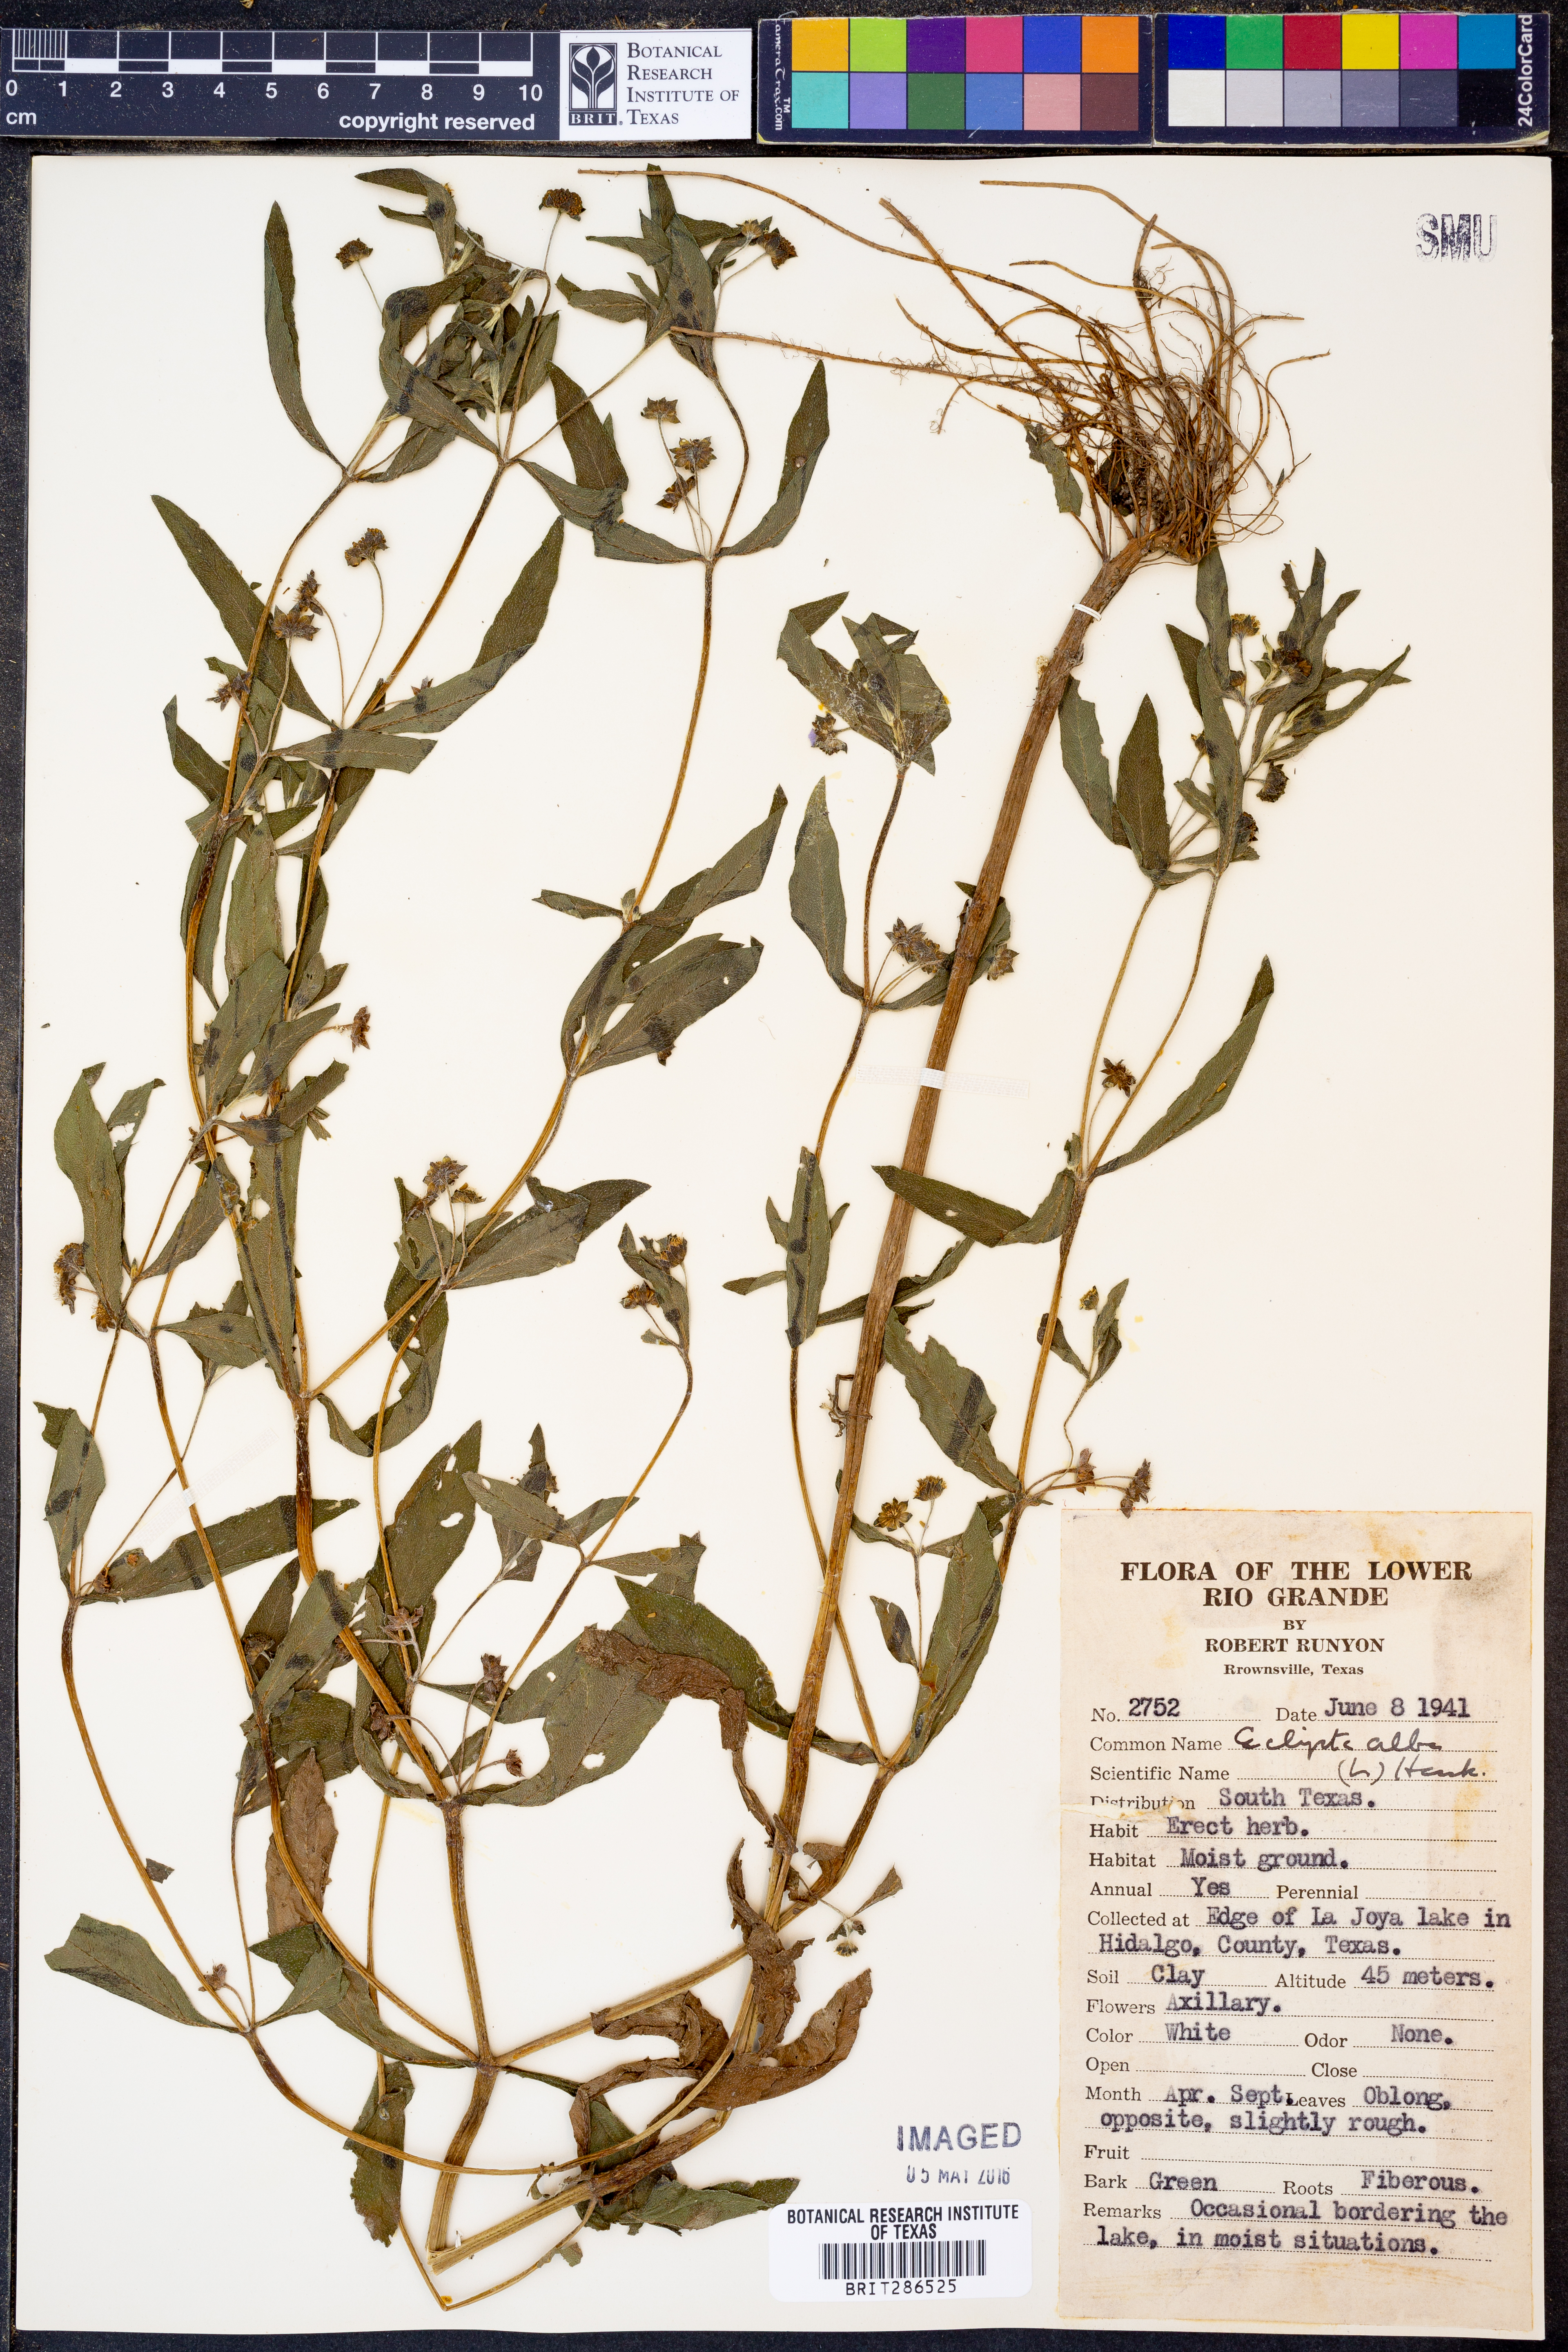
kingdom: Plantae
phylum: Tracheophyta
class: Magnoliopsida
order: Asterales
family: Asteraceae
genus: Eclipta
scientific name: Eclipta alba
